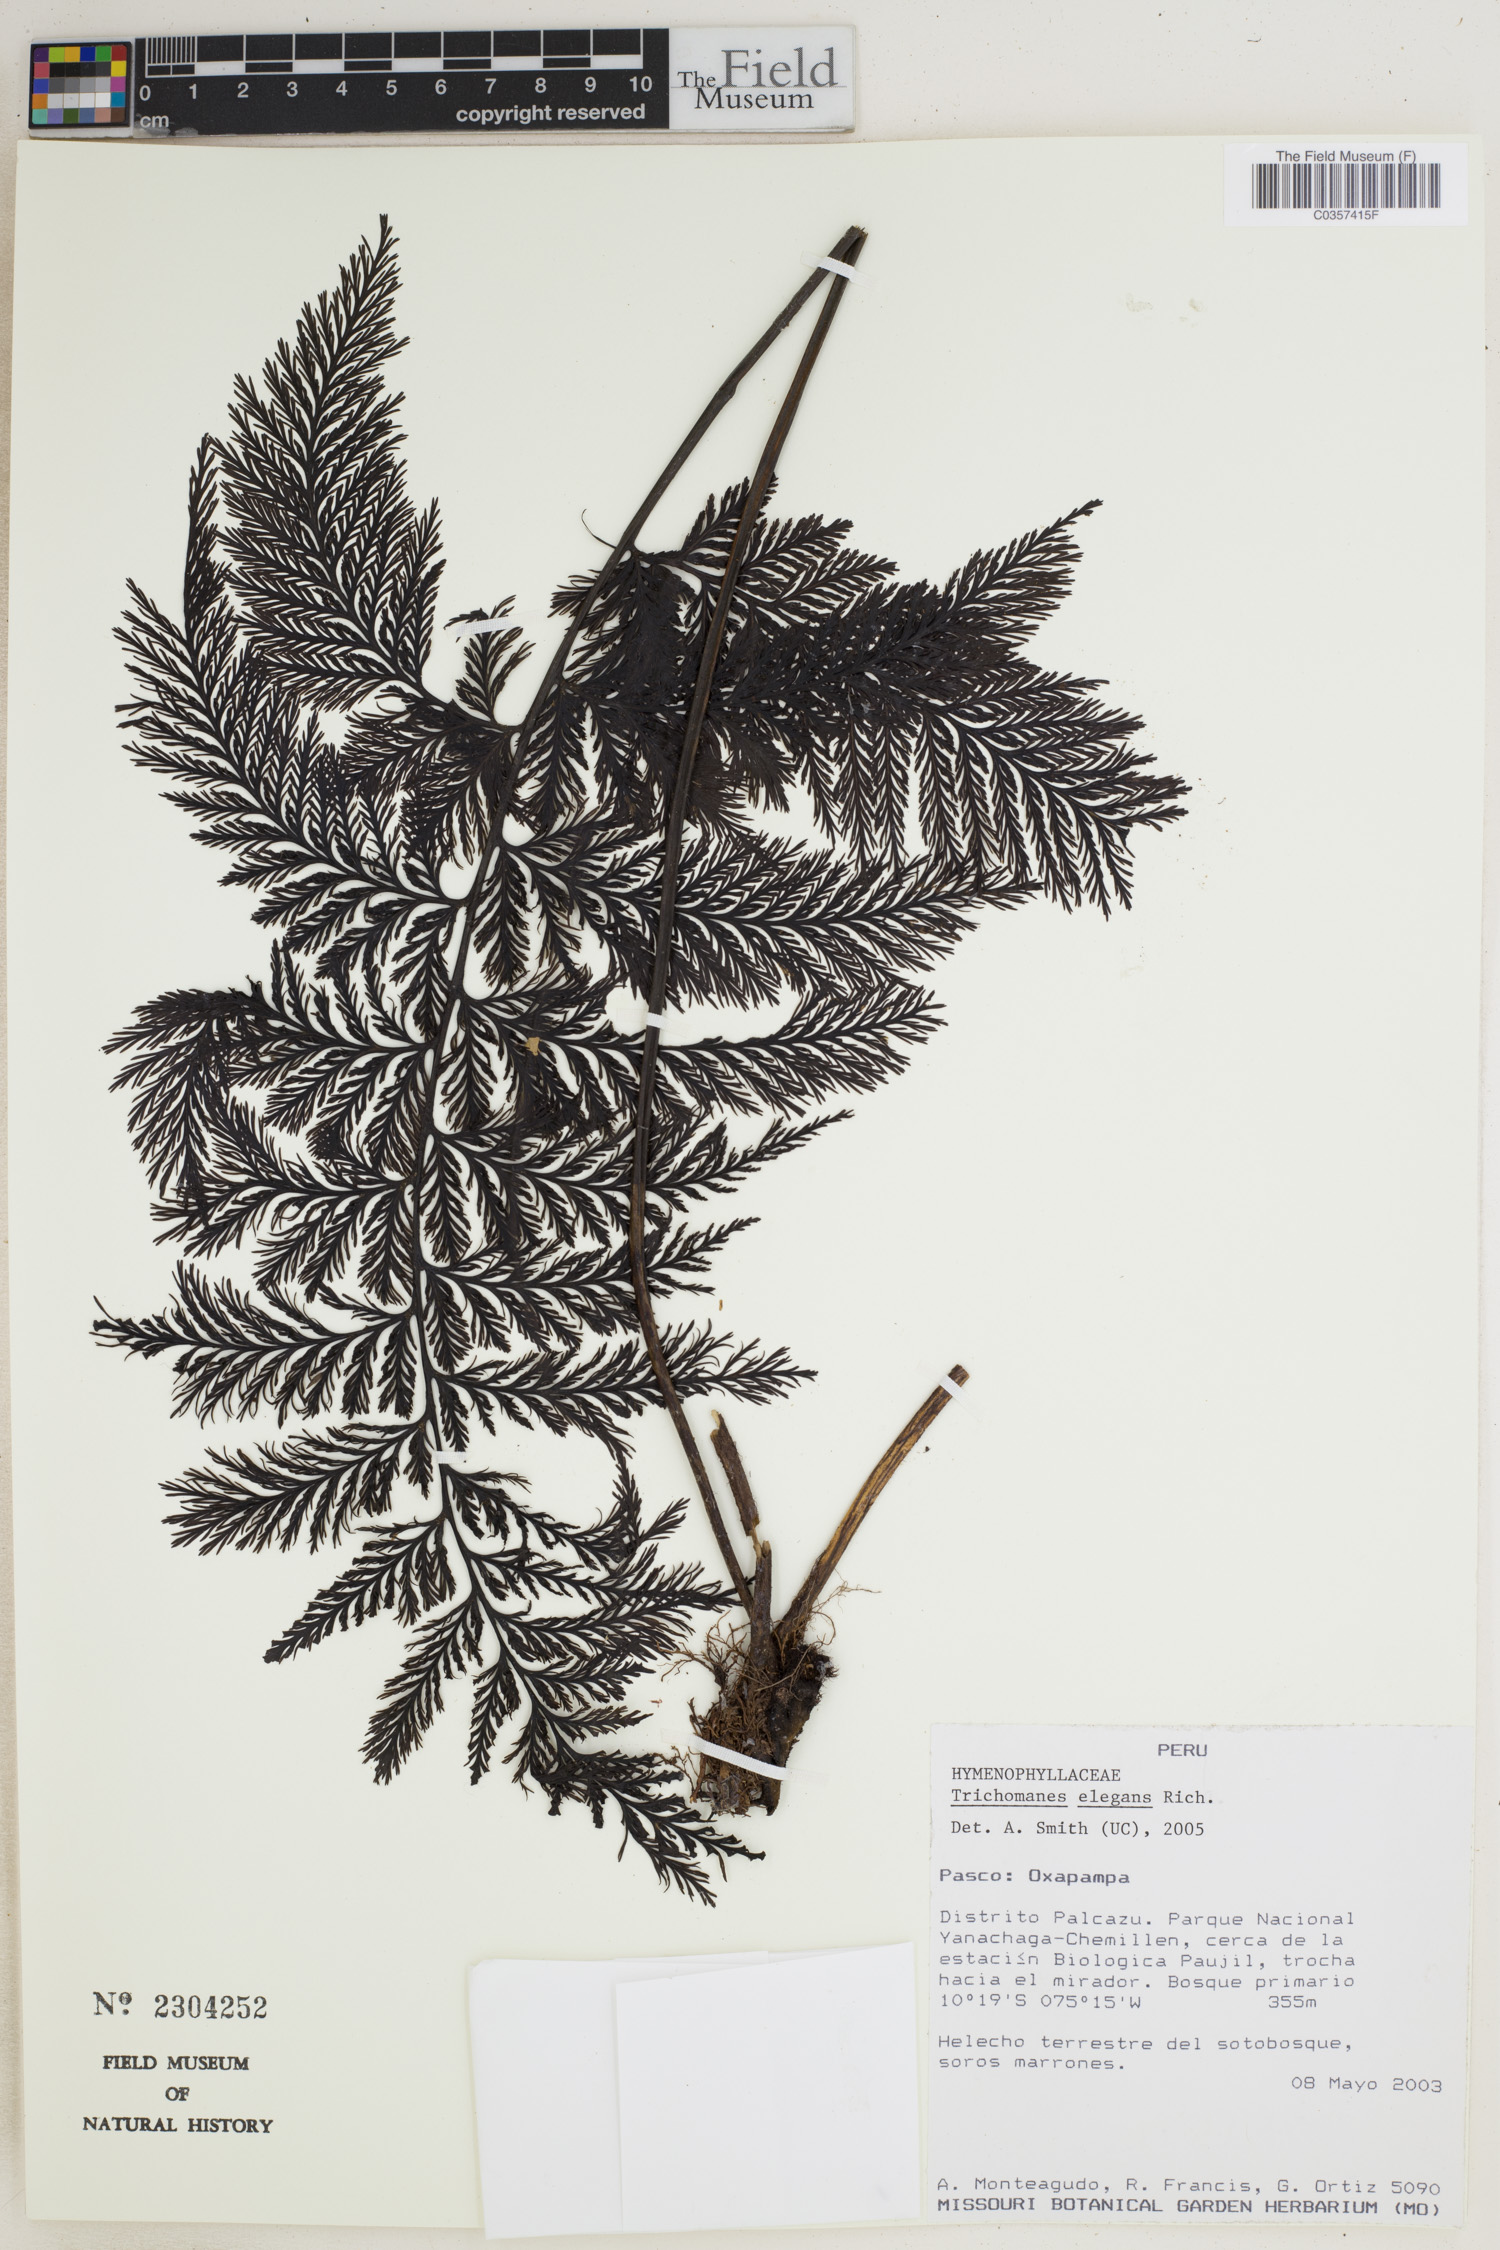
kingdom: Plantae
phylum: Tracheophyta
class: Polypodiopsida
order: Hymenophyllales
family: Hymenophyllaceae
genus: Trichomanes
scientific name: Trichomanes elegans
